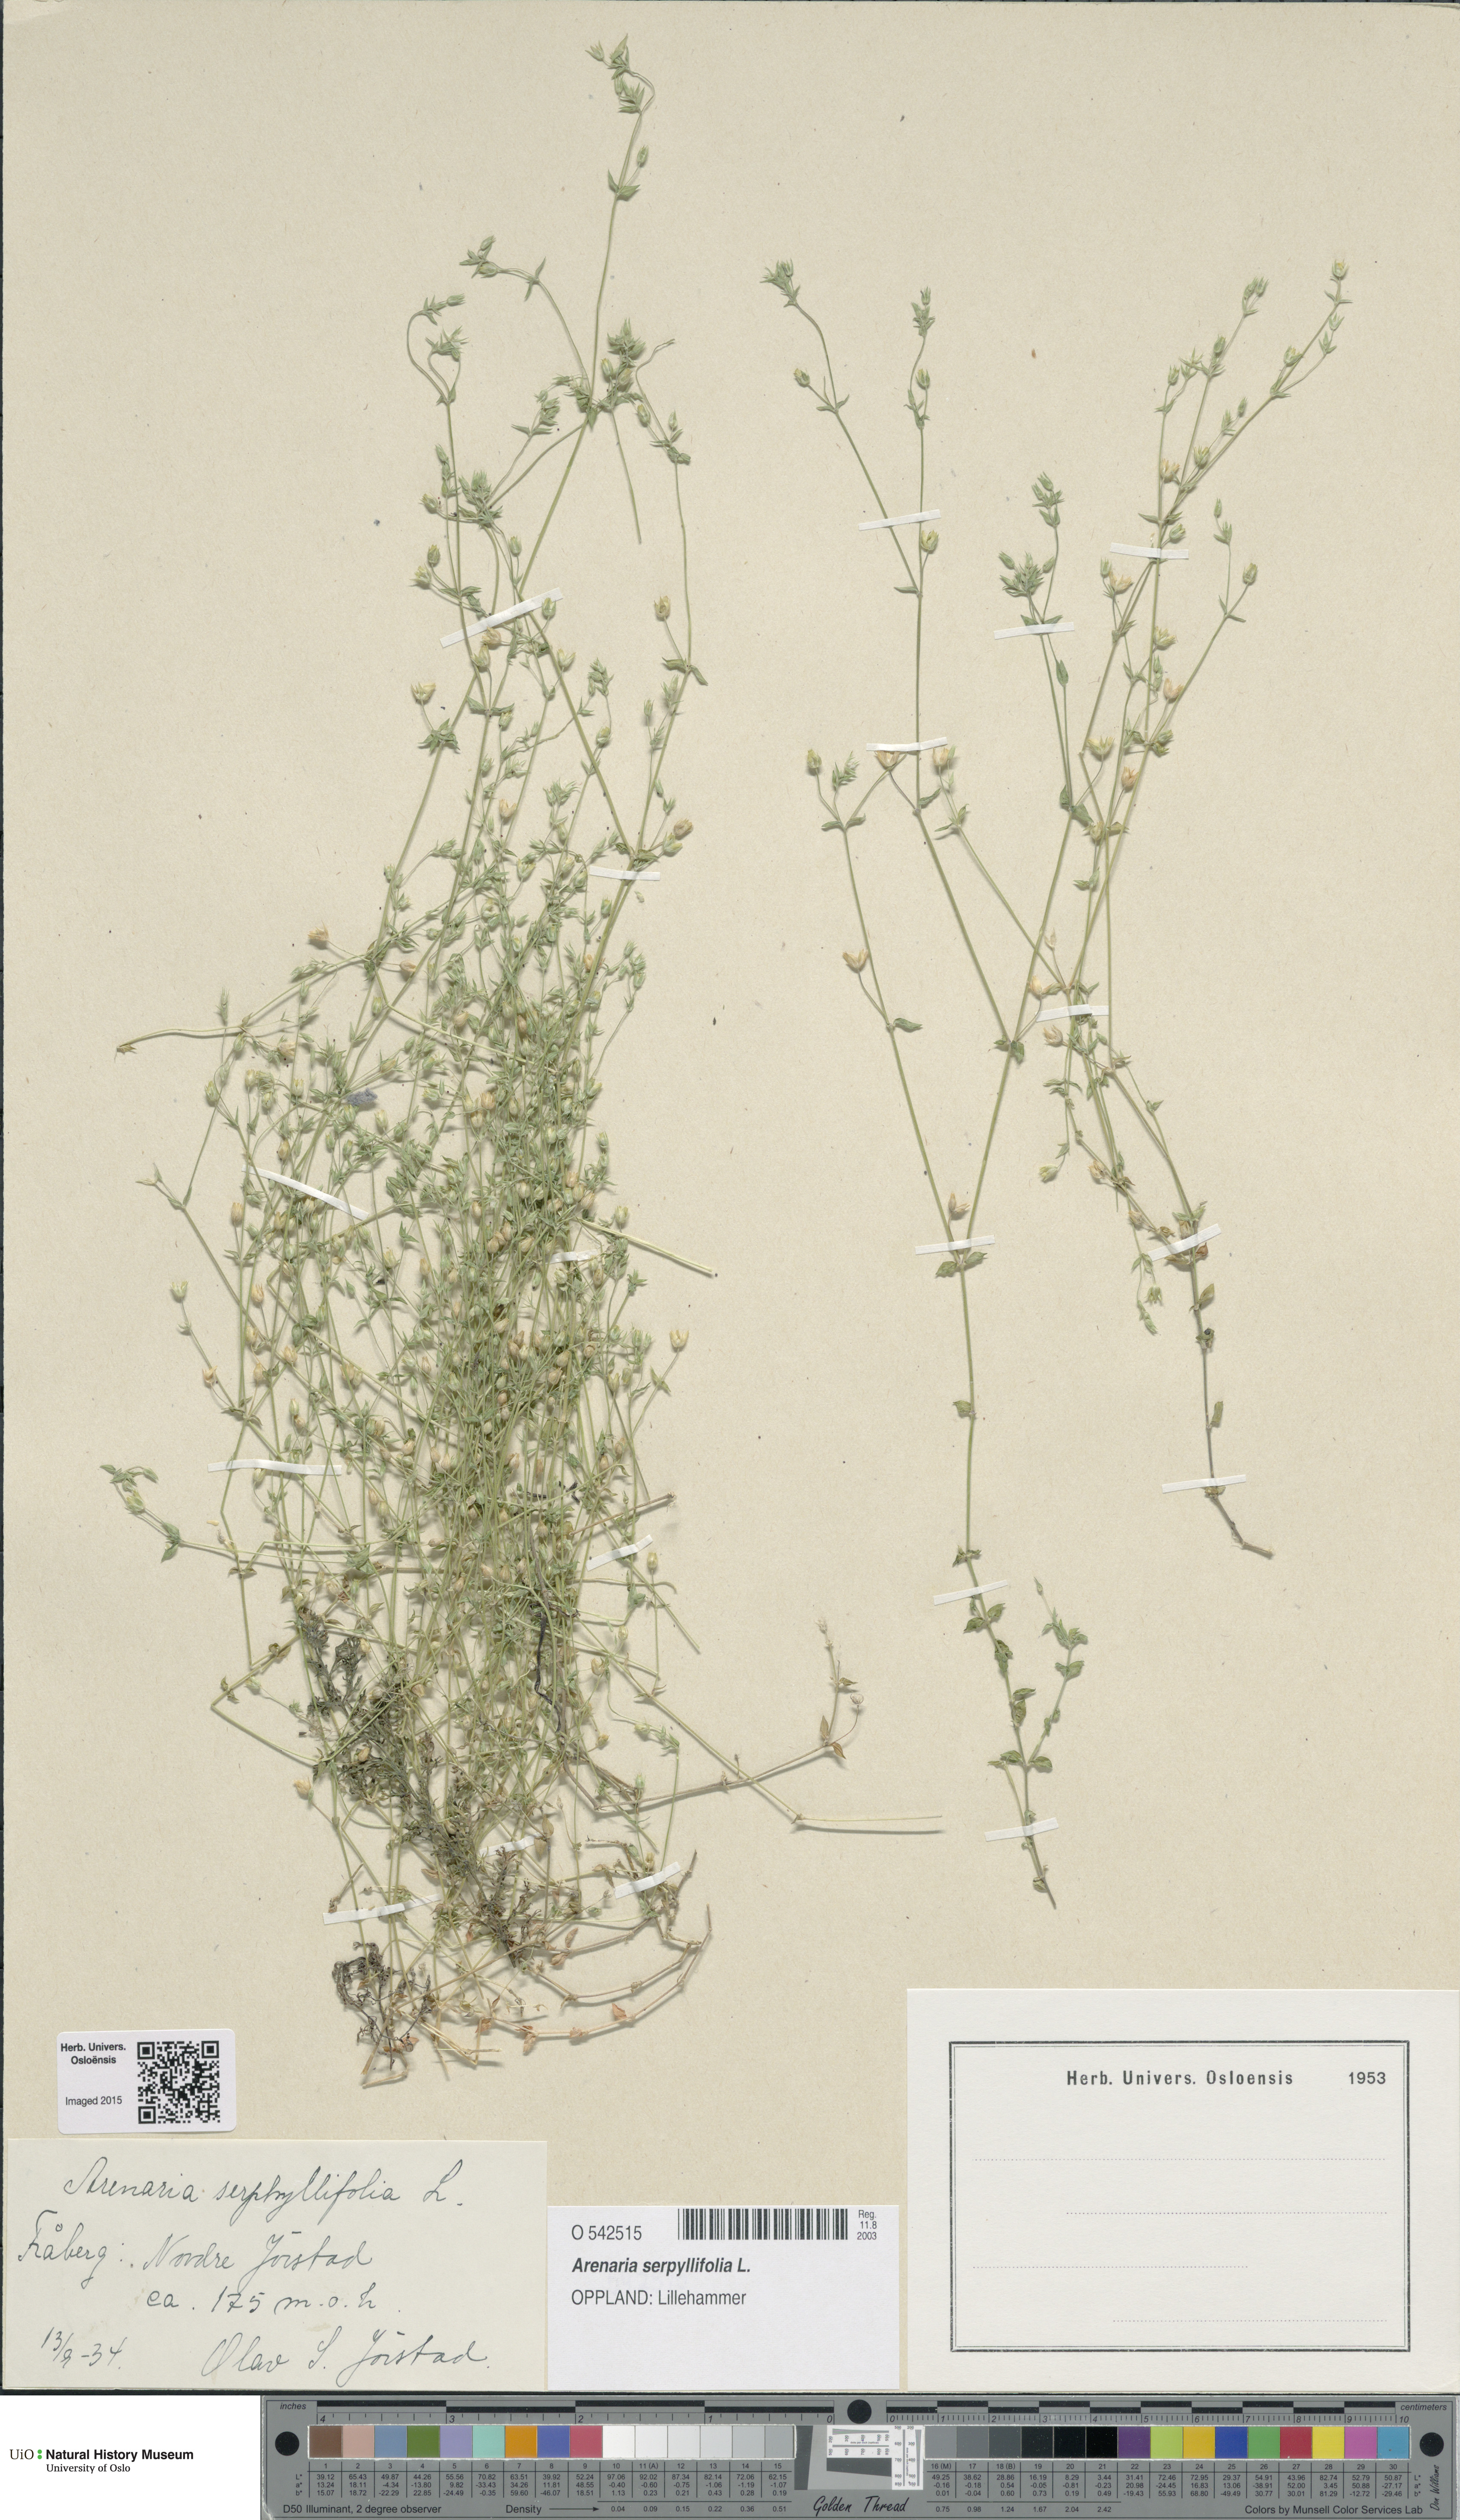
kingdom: Plantae
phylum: Tracheophyta
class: Magnoliopsida
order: Caryophyllales
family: Caryophyllaceae
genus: Arenaria
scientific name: Arenaria serpyllifolia
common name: Thyme-leaved sandwort
